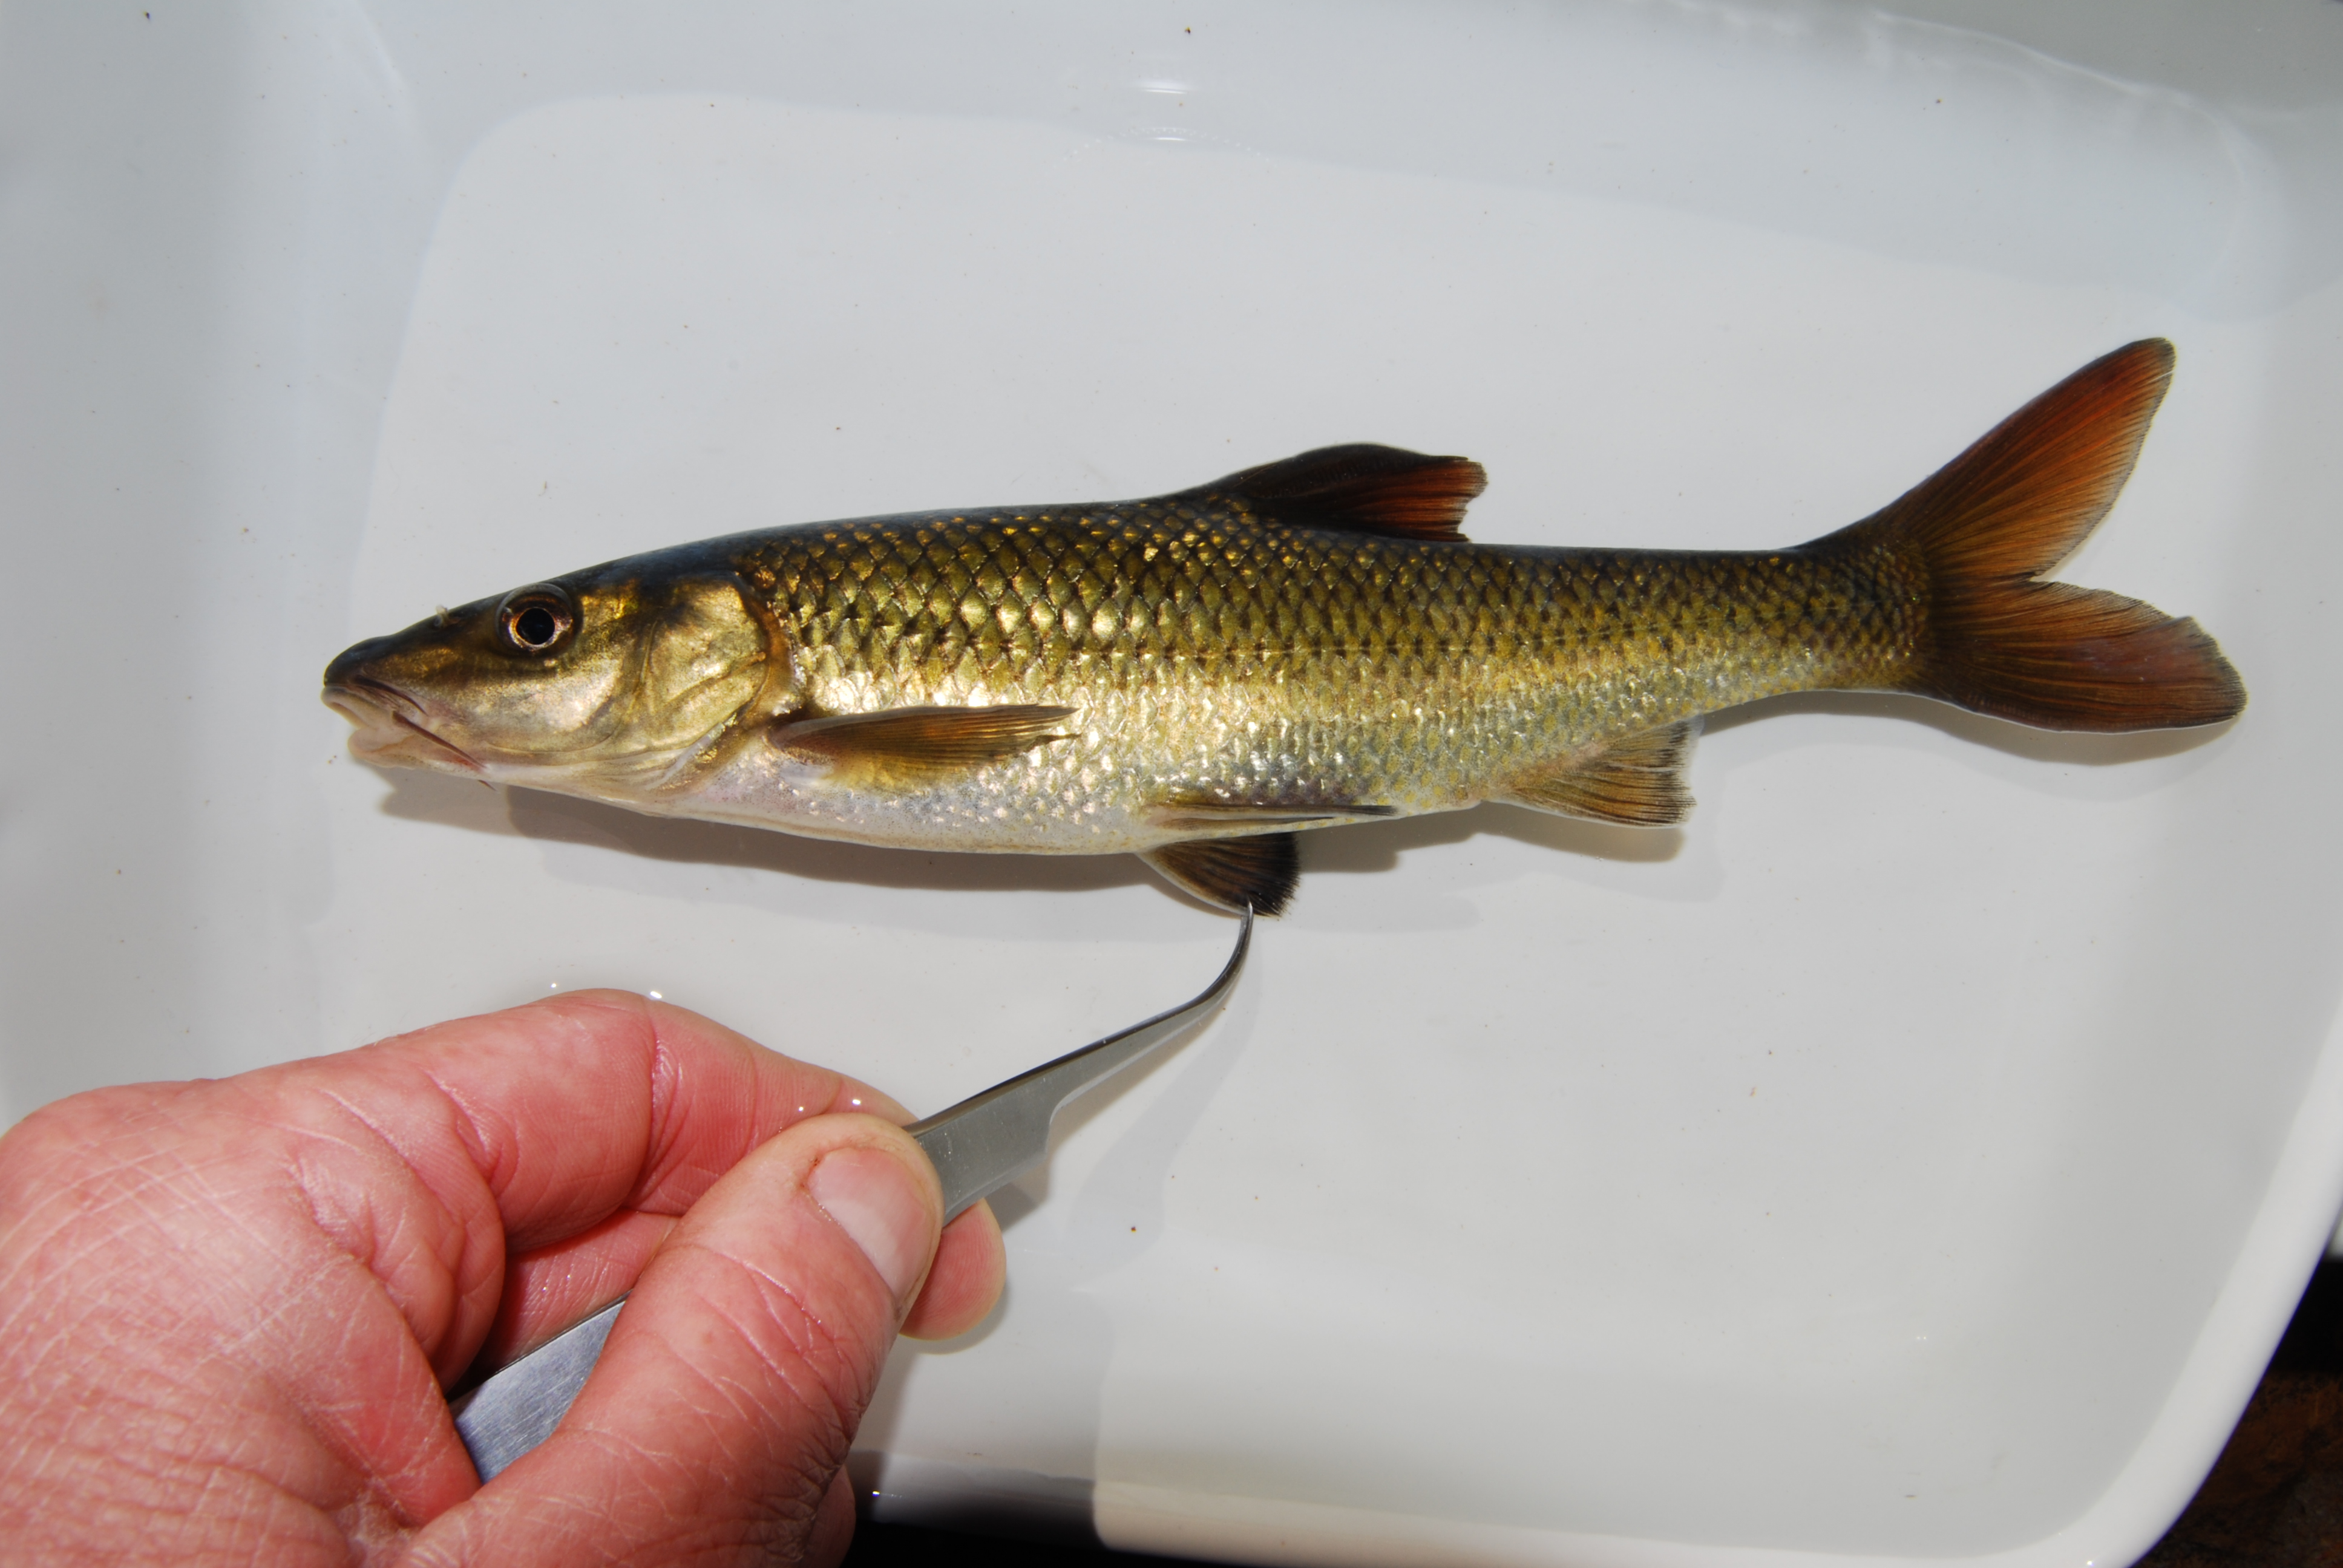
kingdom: Animalia
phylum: Chordata
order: Cypriniformes
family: Cyprinidae
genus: Pseudobarbus
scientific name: Pseudobarbus serra
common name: Clanwilliam sawfin
